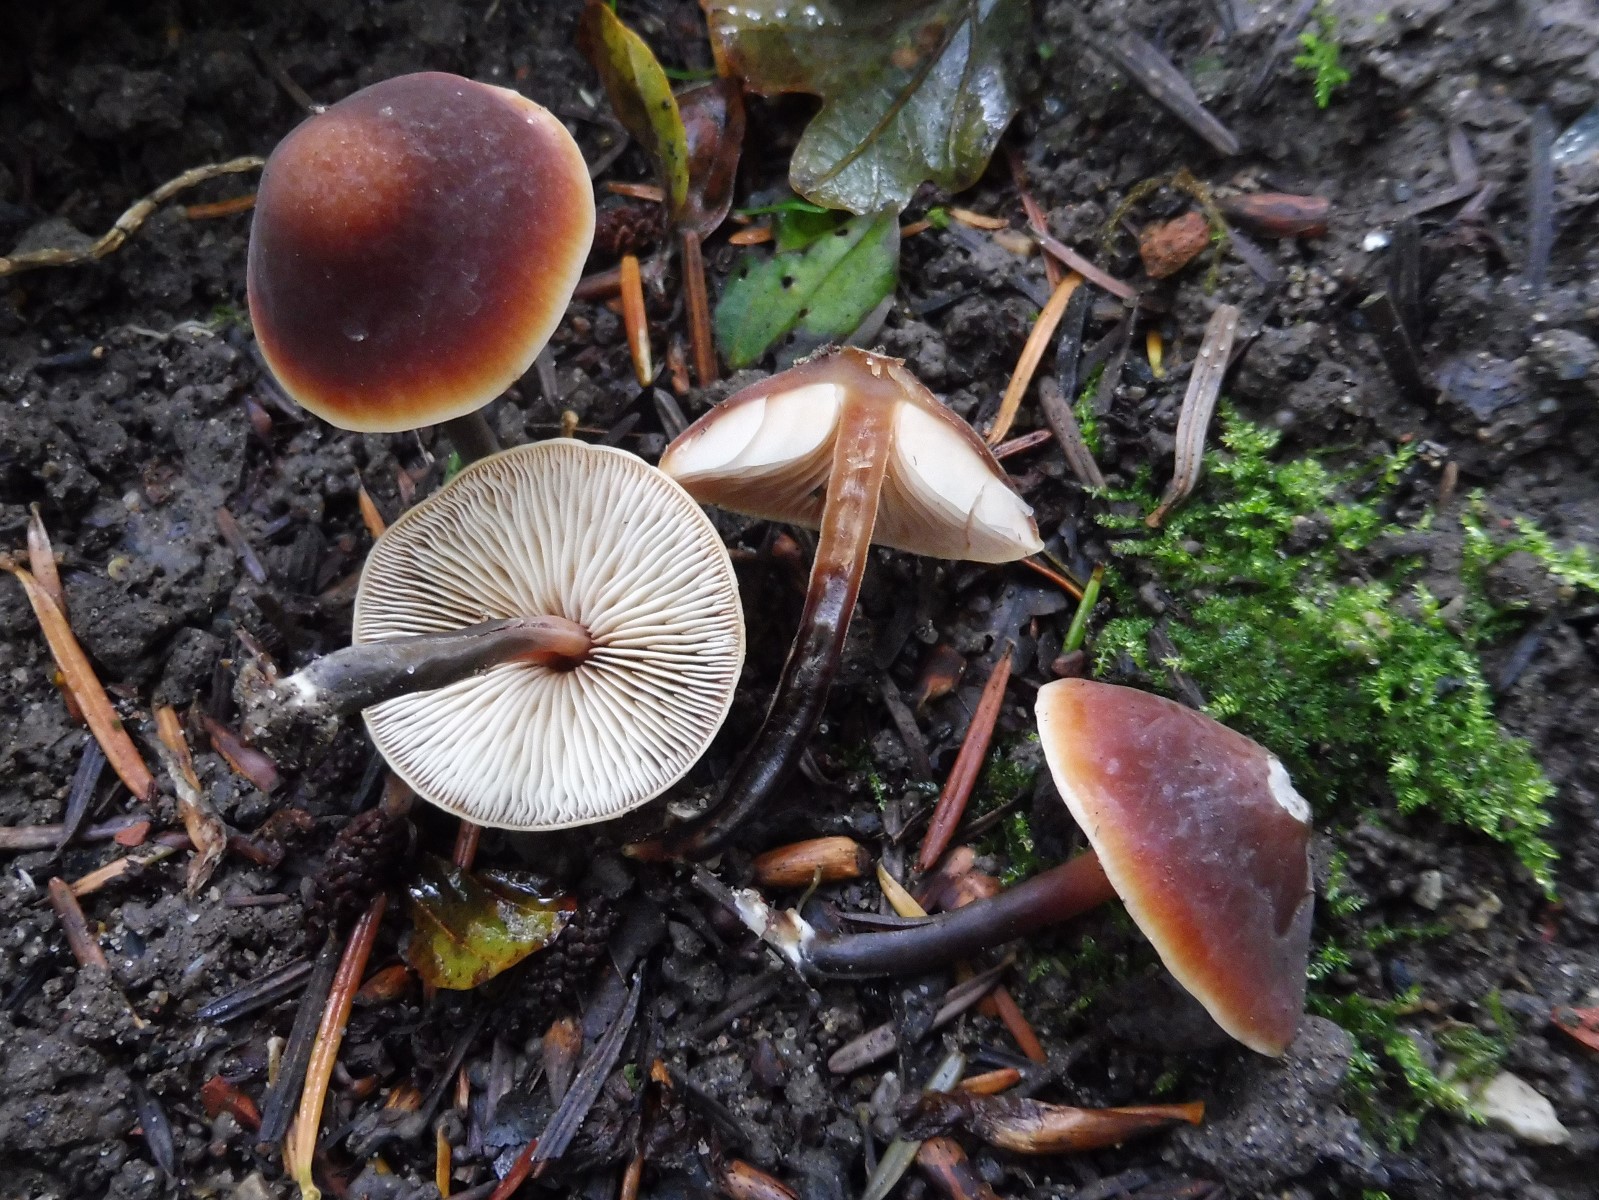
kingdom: Fungi
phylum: Basidiomycota
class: Agaricomycetes
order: Agaricales
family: Macrocystidiaceae
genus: Macrocystidia
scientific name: Macrocystidia cucumis
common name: agurkehat
